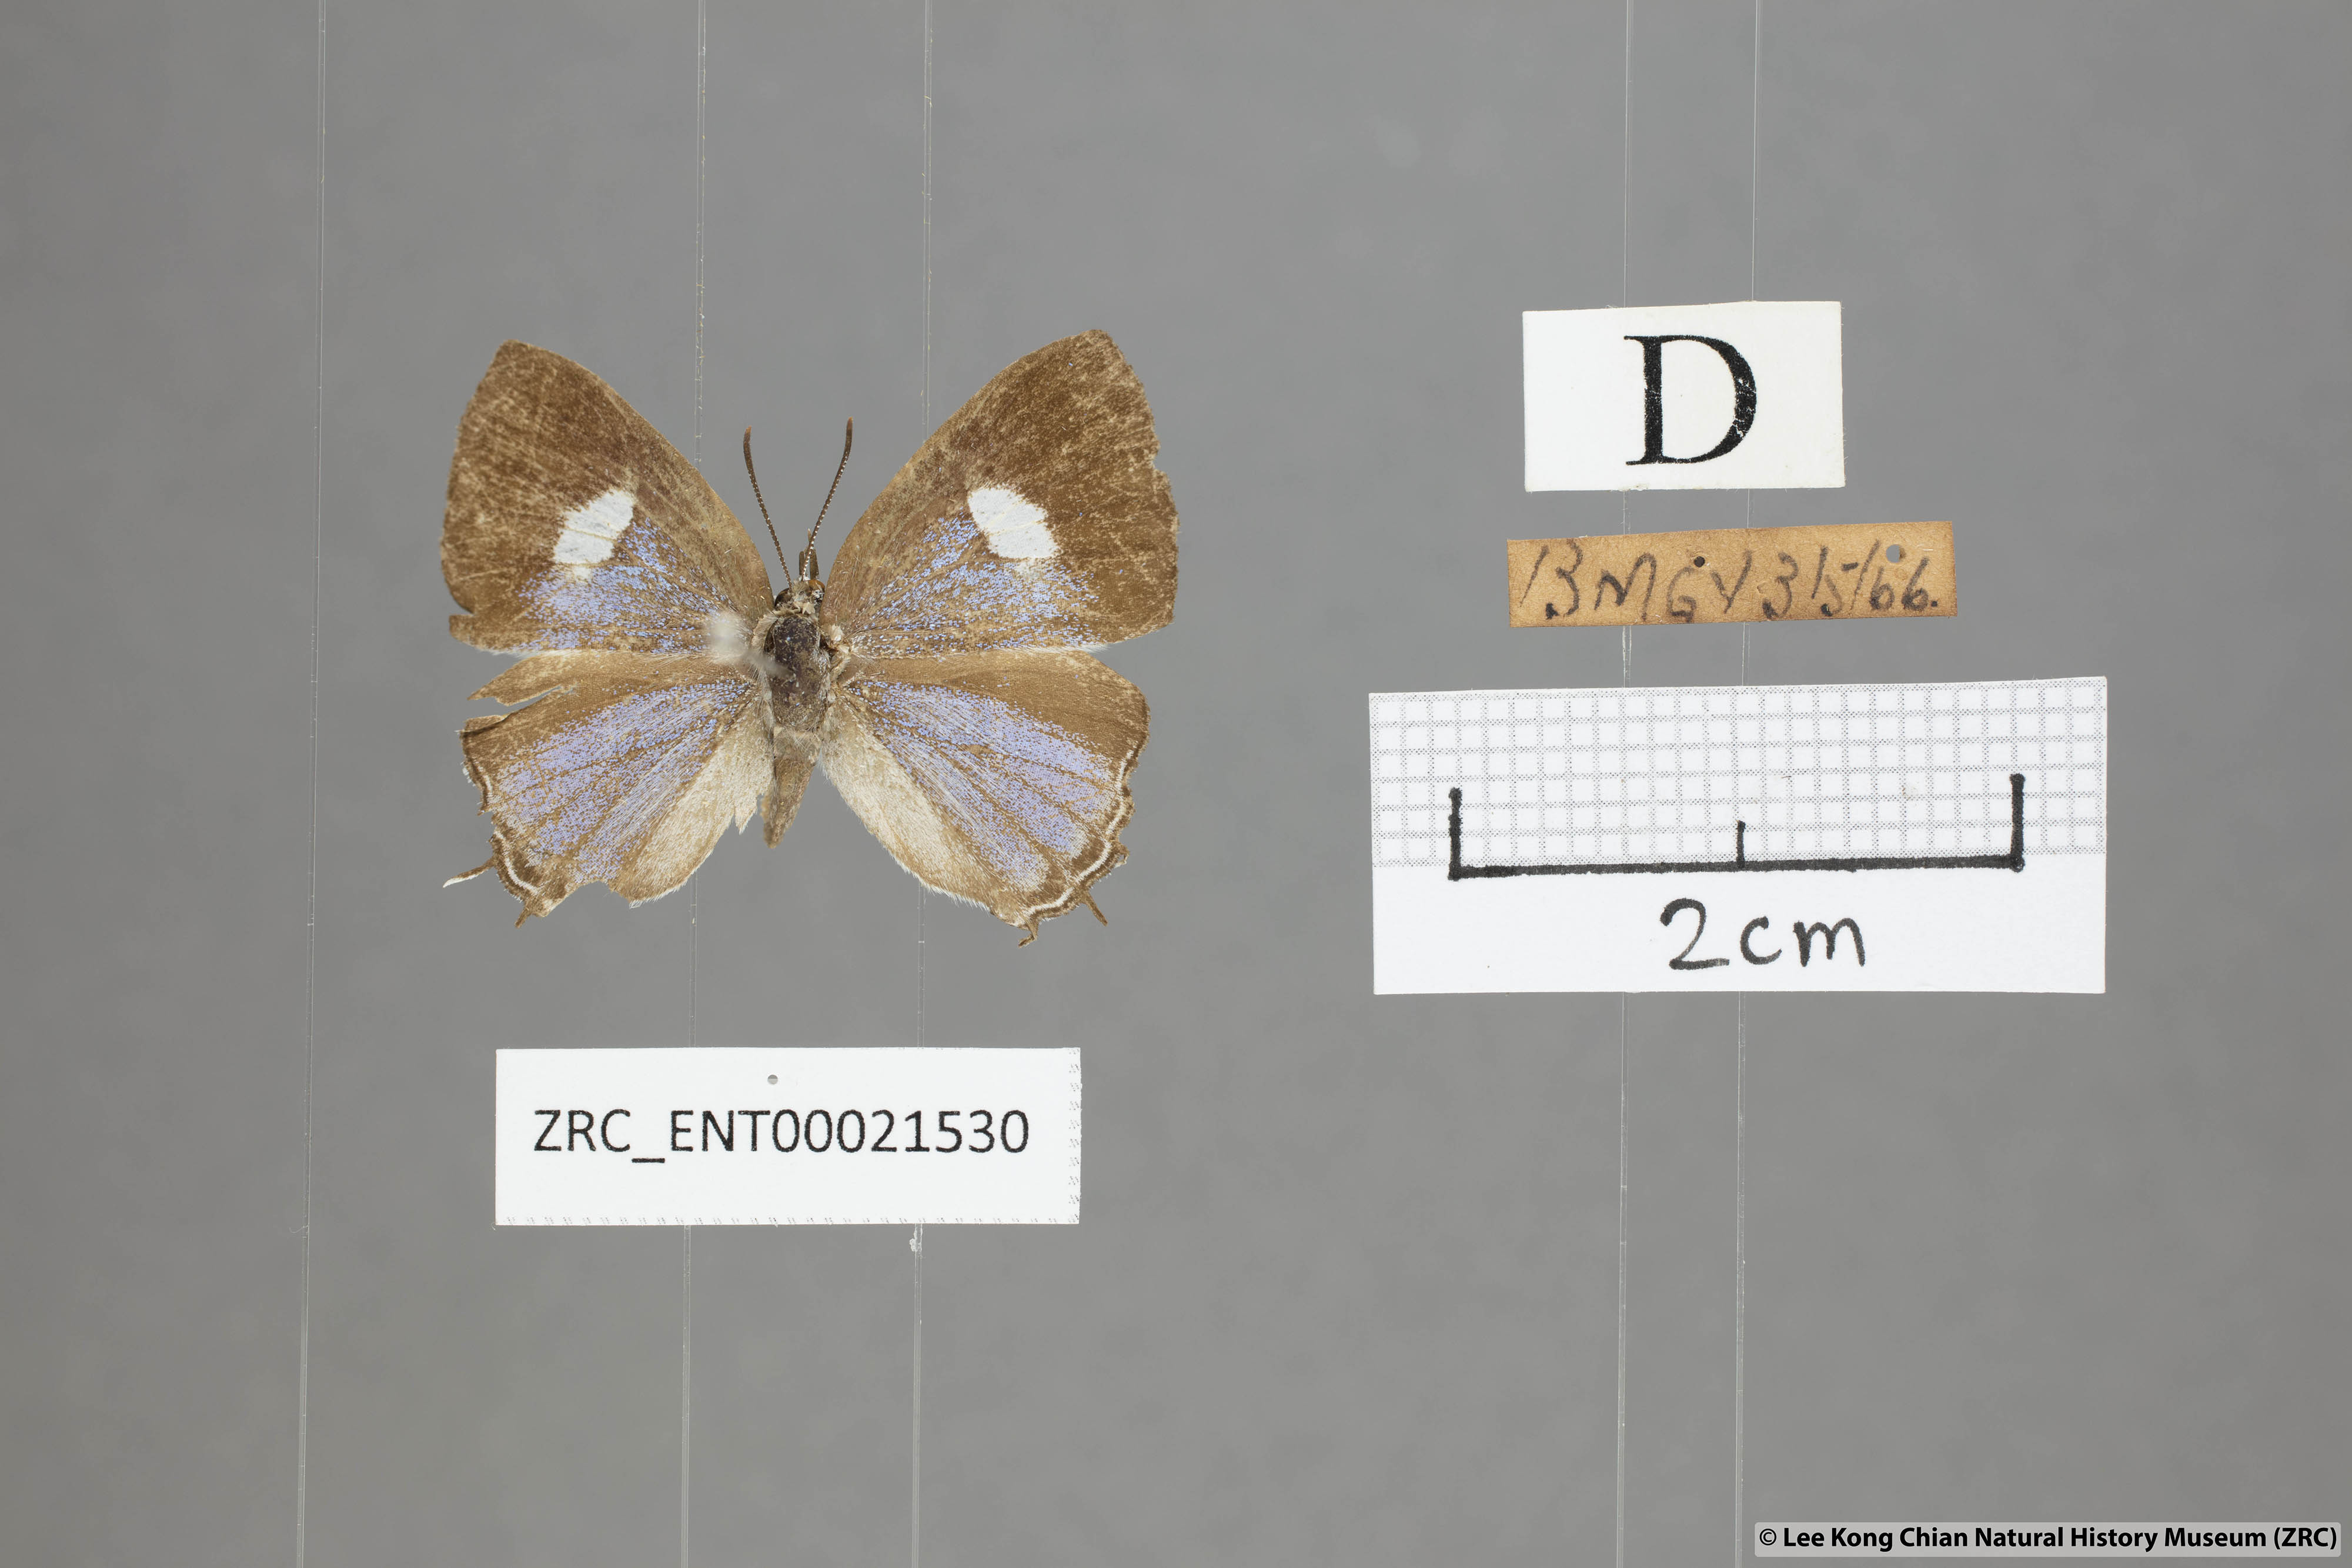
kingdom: Animalia
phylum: Arthropoda
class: Insecta
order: Lepidoptera
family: Lycaenidae
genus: Horaga
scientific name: Horaga syrinx
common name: Ambon onyx
